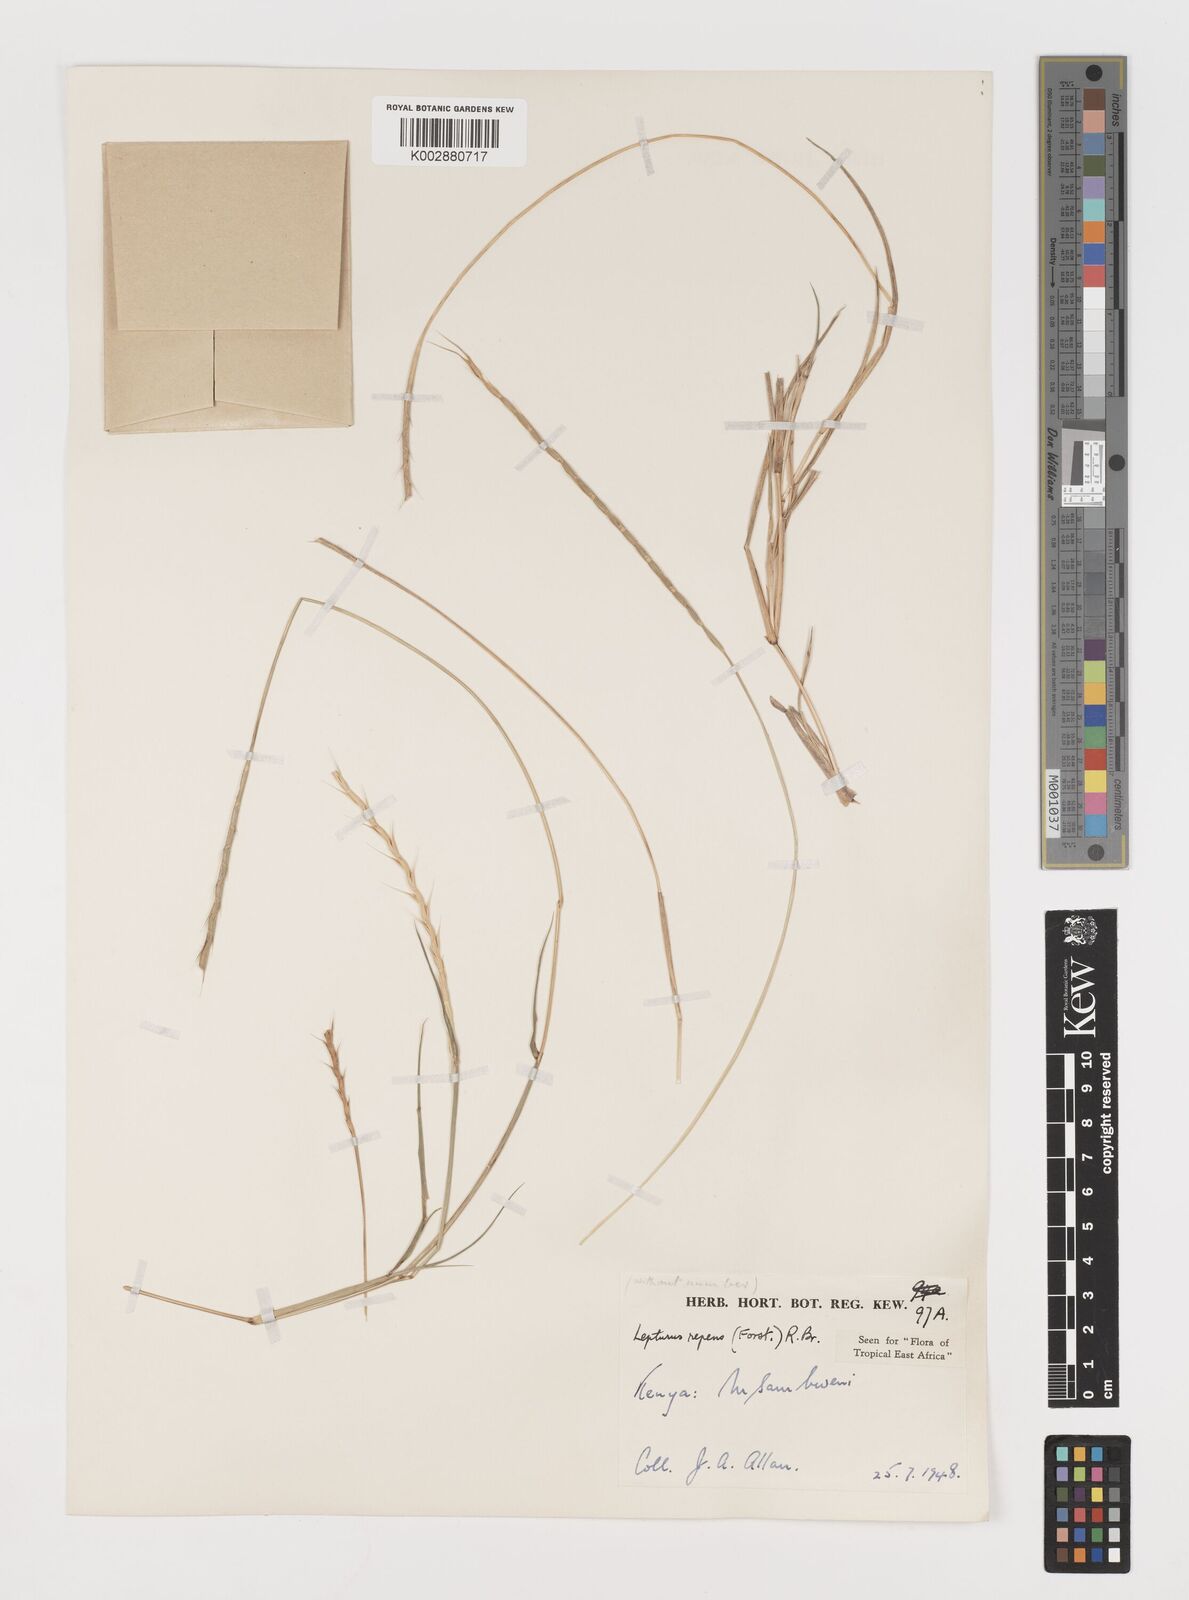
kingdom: Plantae
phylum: Tracheophyta
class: Liliopsida
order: Poales
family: Poaceae
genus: Lepturus
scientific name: Lepturus repens
